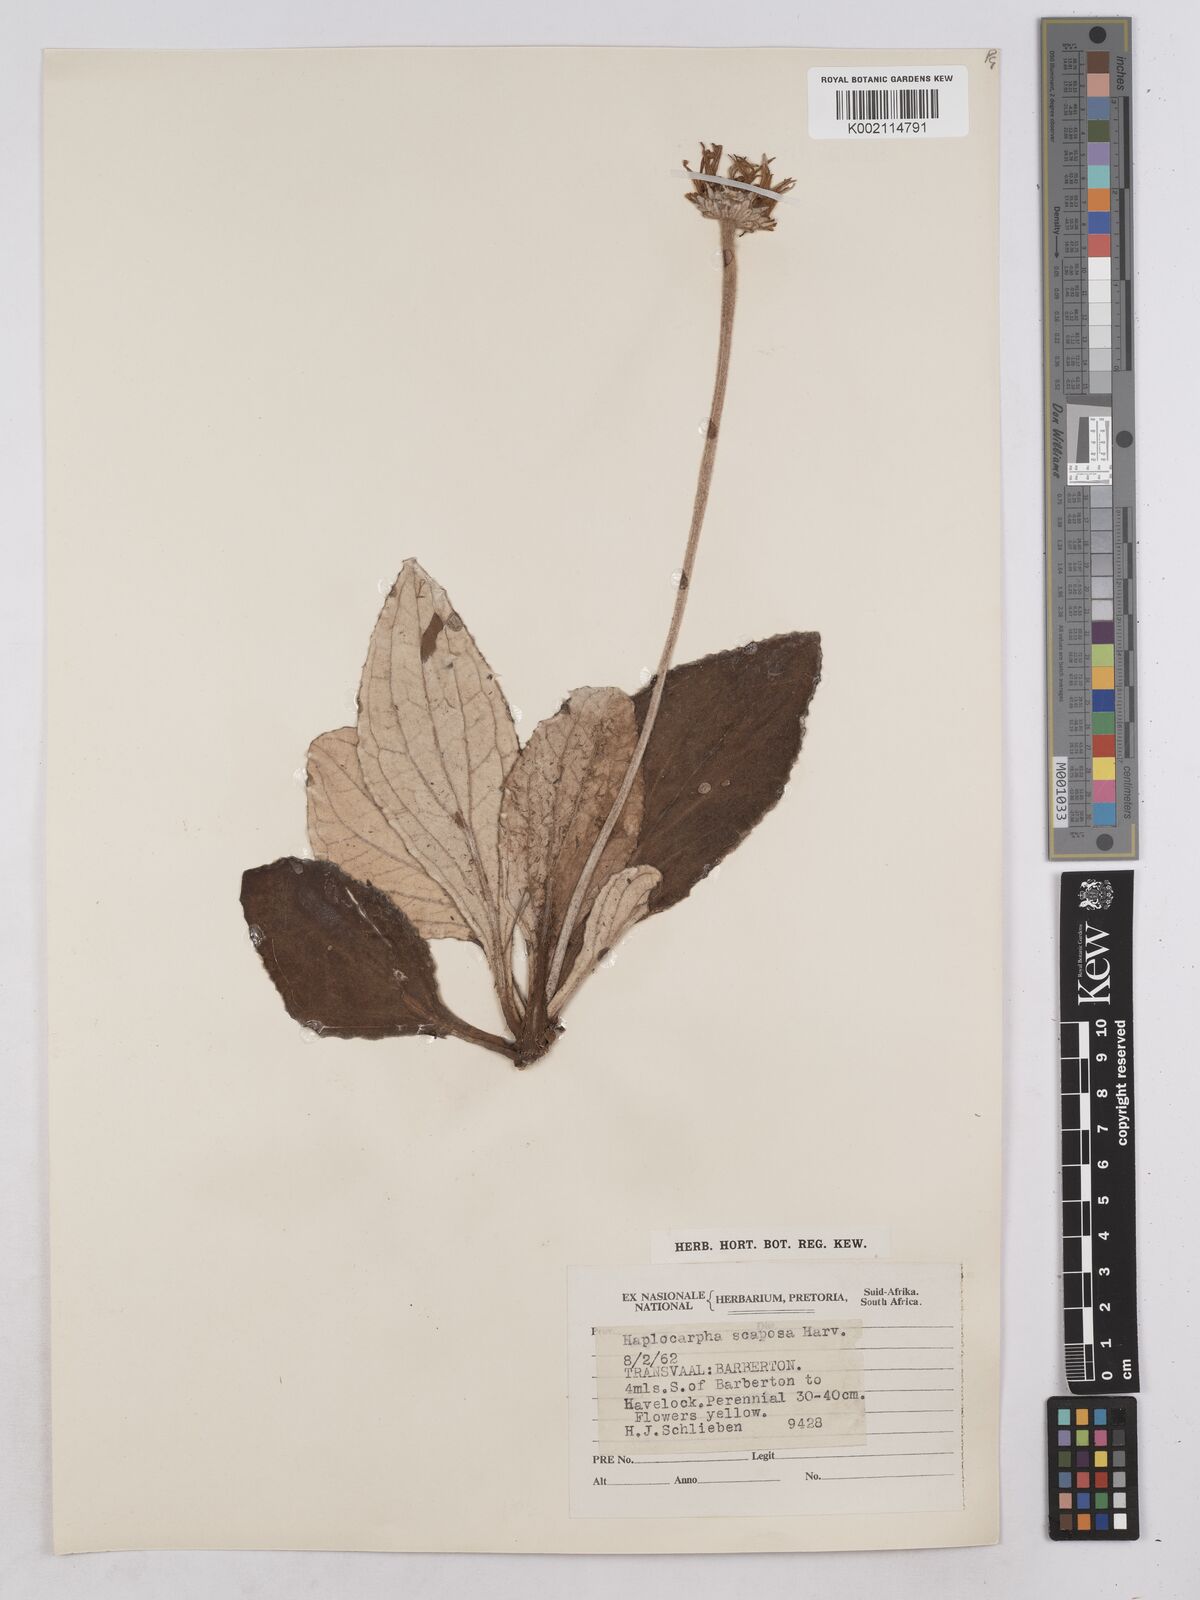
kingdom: Plantae
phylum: Tracheophyta
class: Magnoliopsida
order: Asterales
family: Asteraceae
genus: Haplocarpha
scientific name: Haplocarpha scaposa
